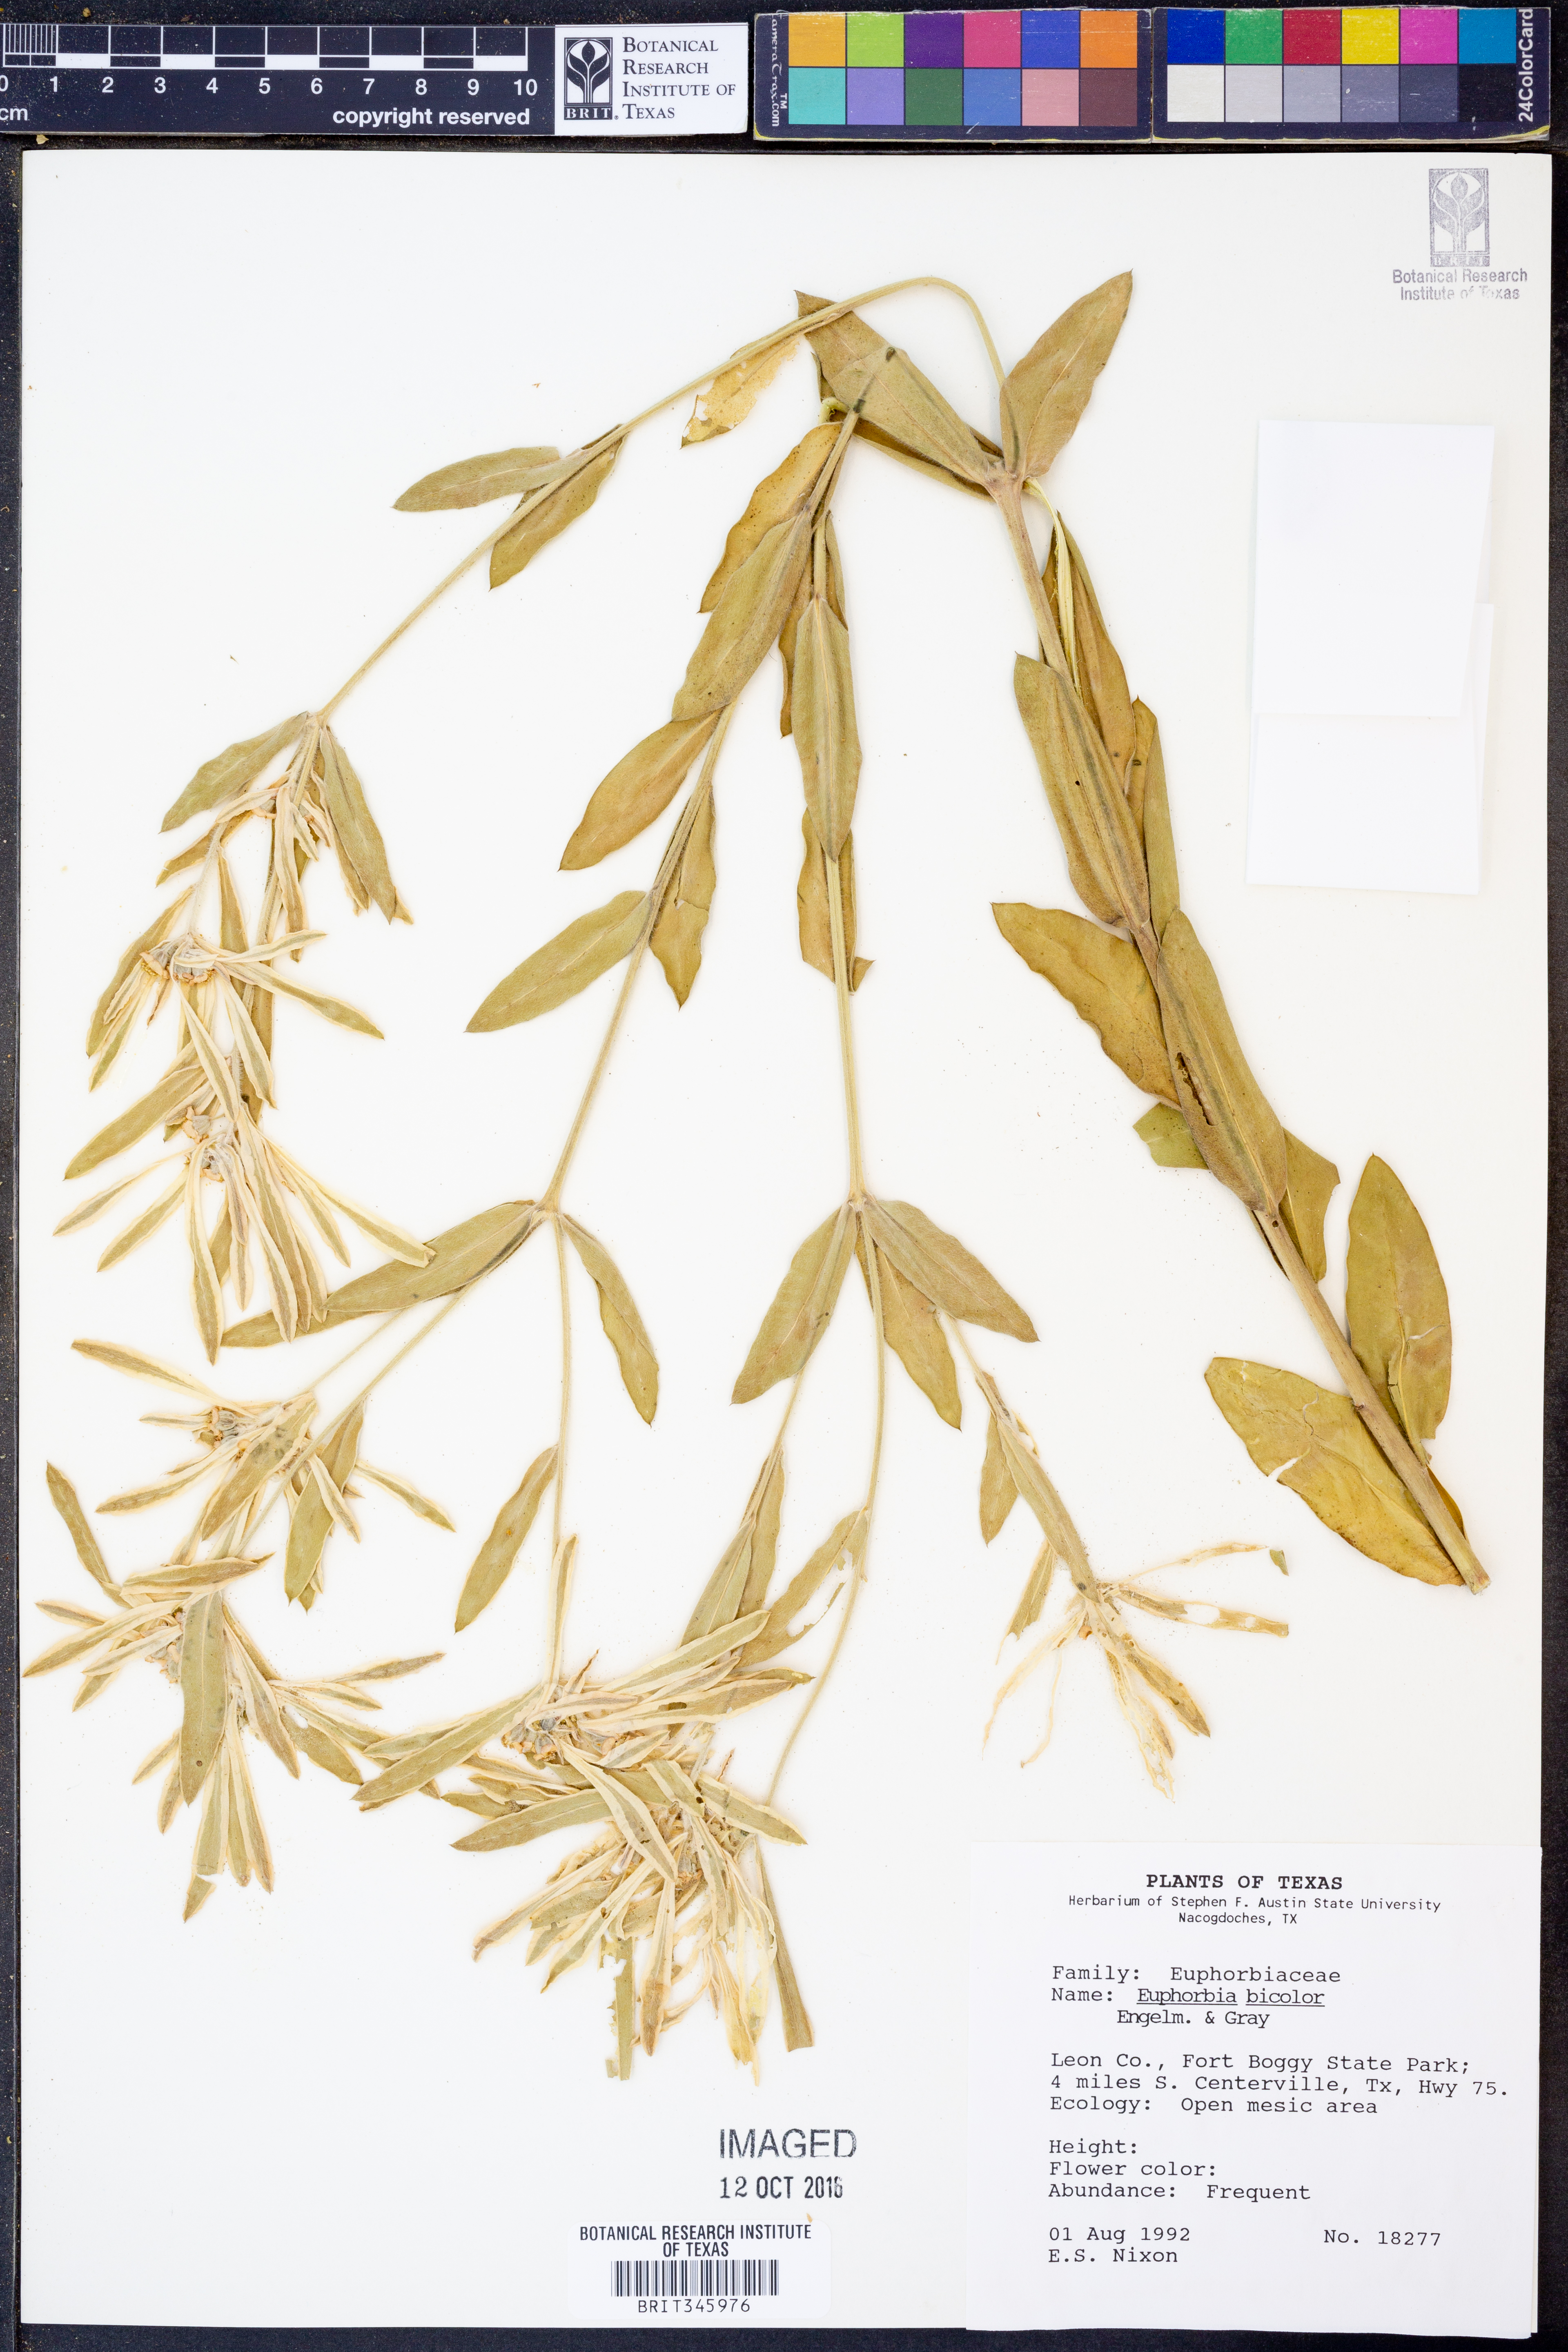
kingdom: Plantae
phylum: Tracheophyta
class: Magnoliopsida
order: Malpighiales
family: Euphorbiaceae
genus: Euphorbia
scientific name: Euphorbia bicolor
